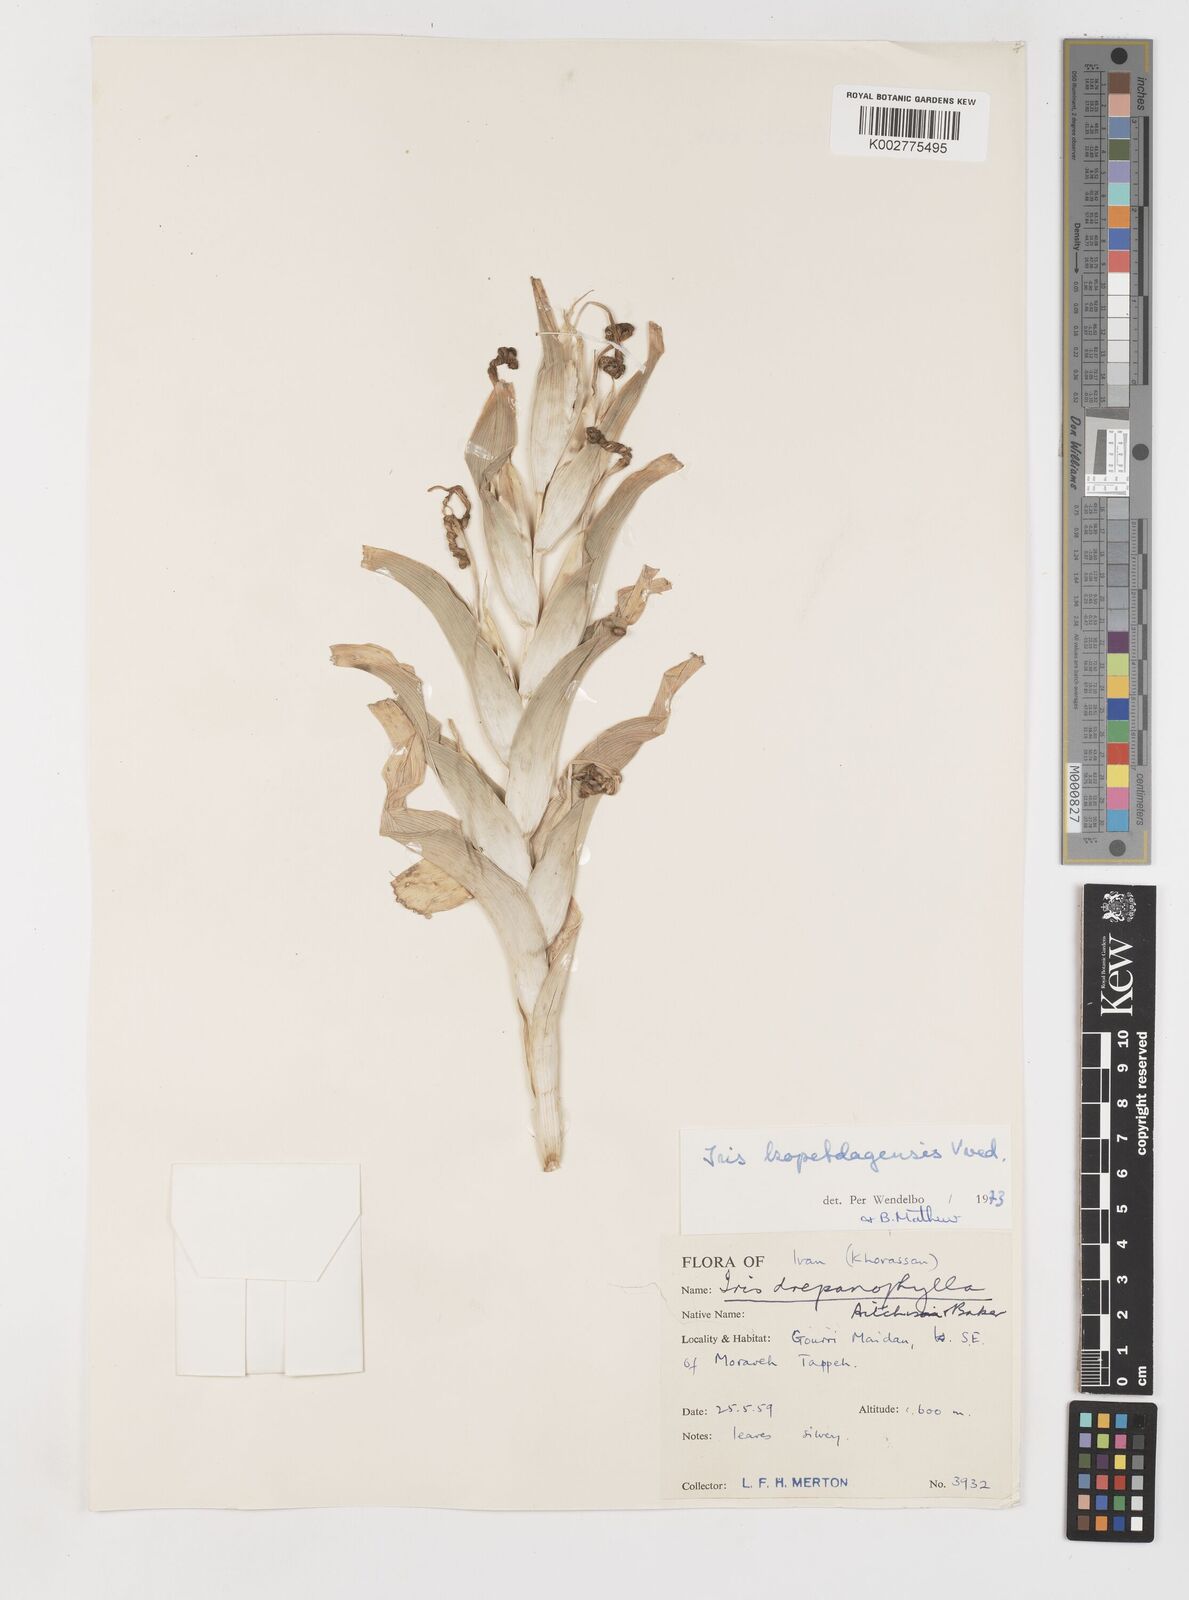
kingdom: Plantae
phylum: Tracheophyta
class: Liliopsida
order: Asparagales
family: Iridaceae
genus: Iris
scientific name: Iris kopetdagensis
